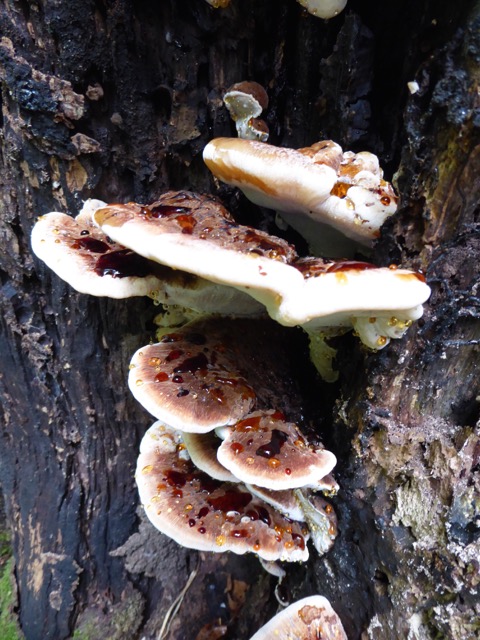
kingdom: Fungi
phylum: Basidiomycota
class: Agaricomycetes
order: Polyporales
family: Ischnodermataceae
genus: Ischnoderma
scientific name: Ischnoderma resinosum
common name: løv-tjæreporesvamp
